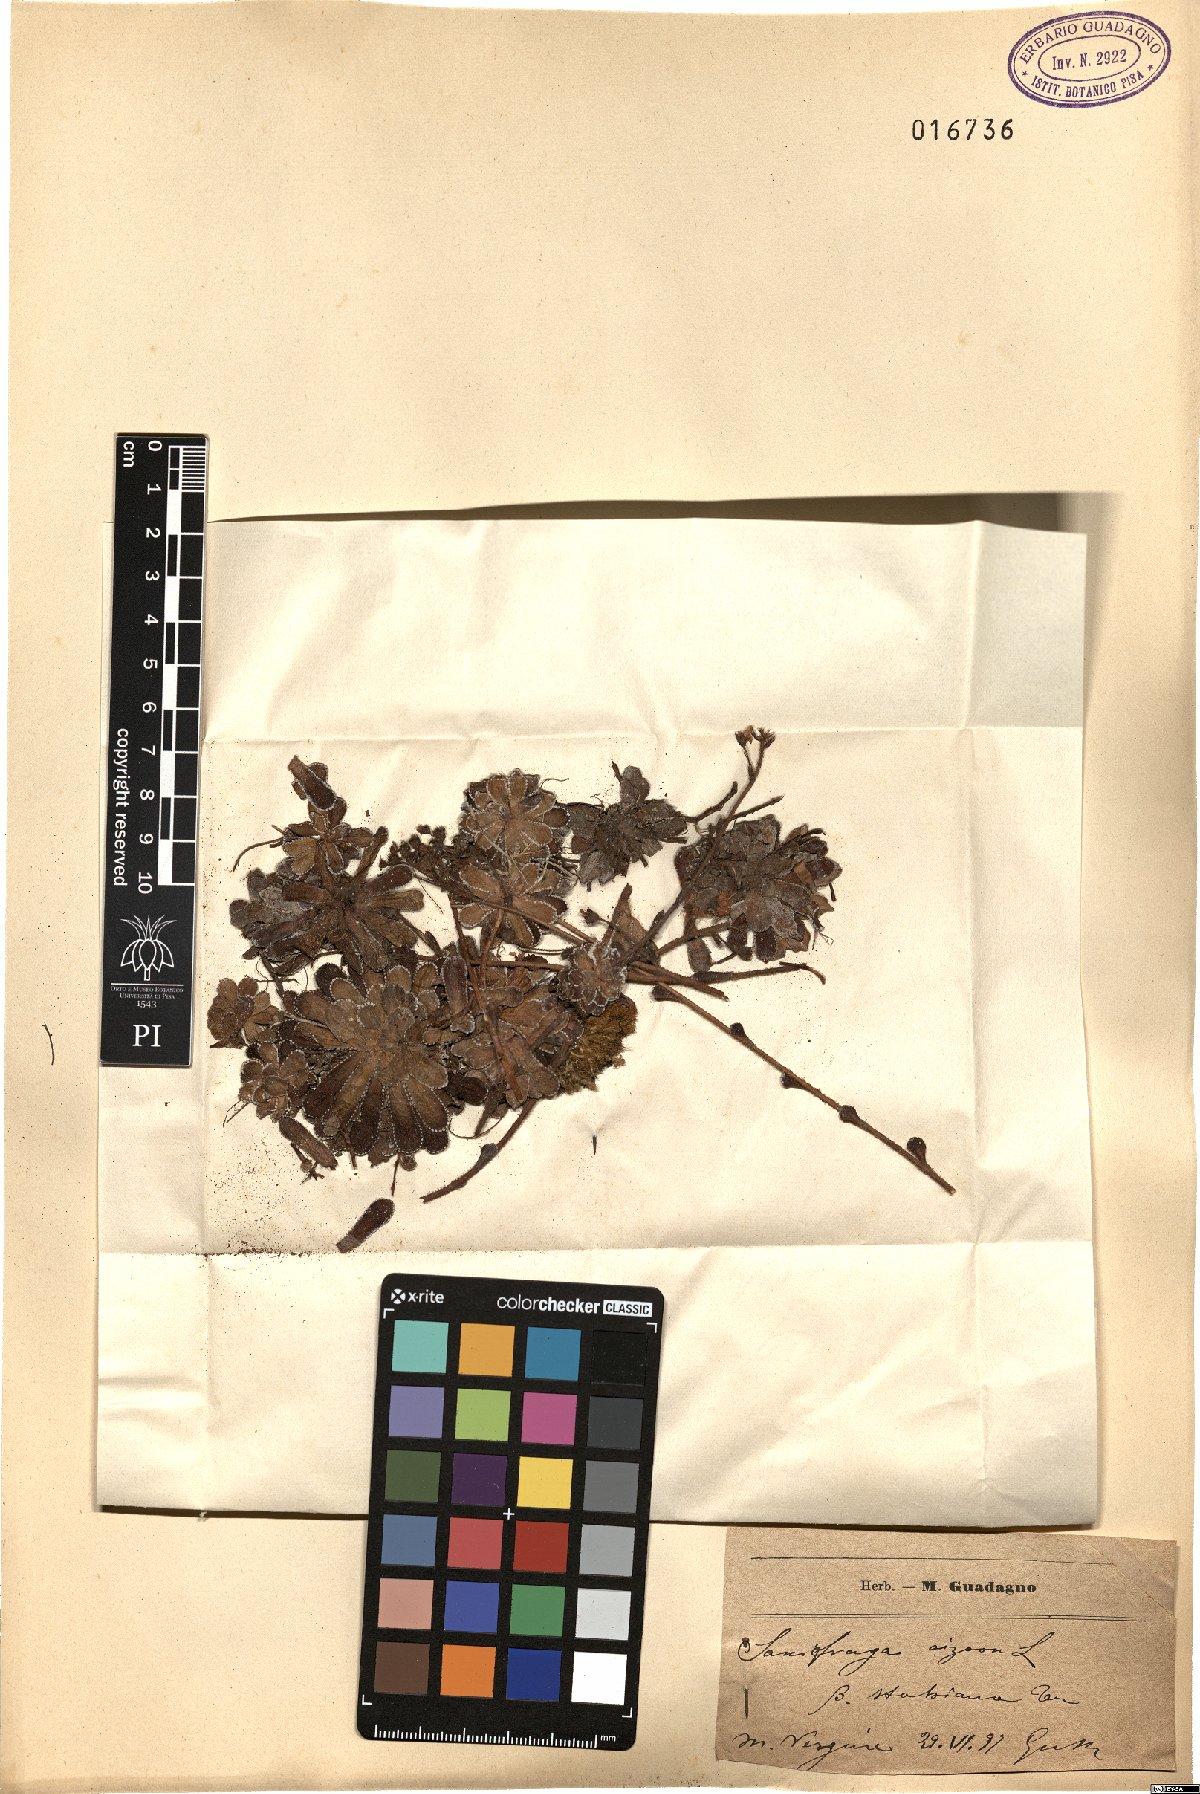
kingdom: Plantae
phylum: Tracheophyta
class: Magnoliopsida
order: Saxifragales
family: Saxifragaceae
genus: Saxifraga
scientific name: Saxifraga paniculata
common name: Livelong saxifrage
